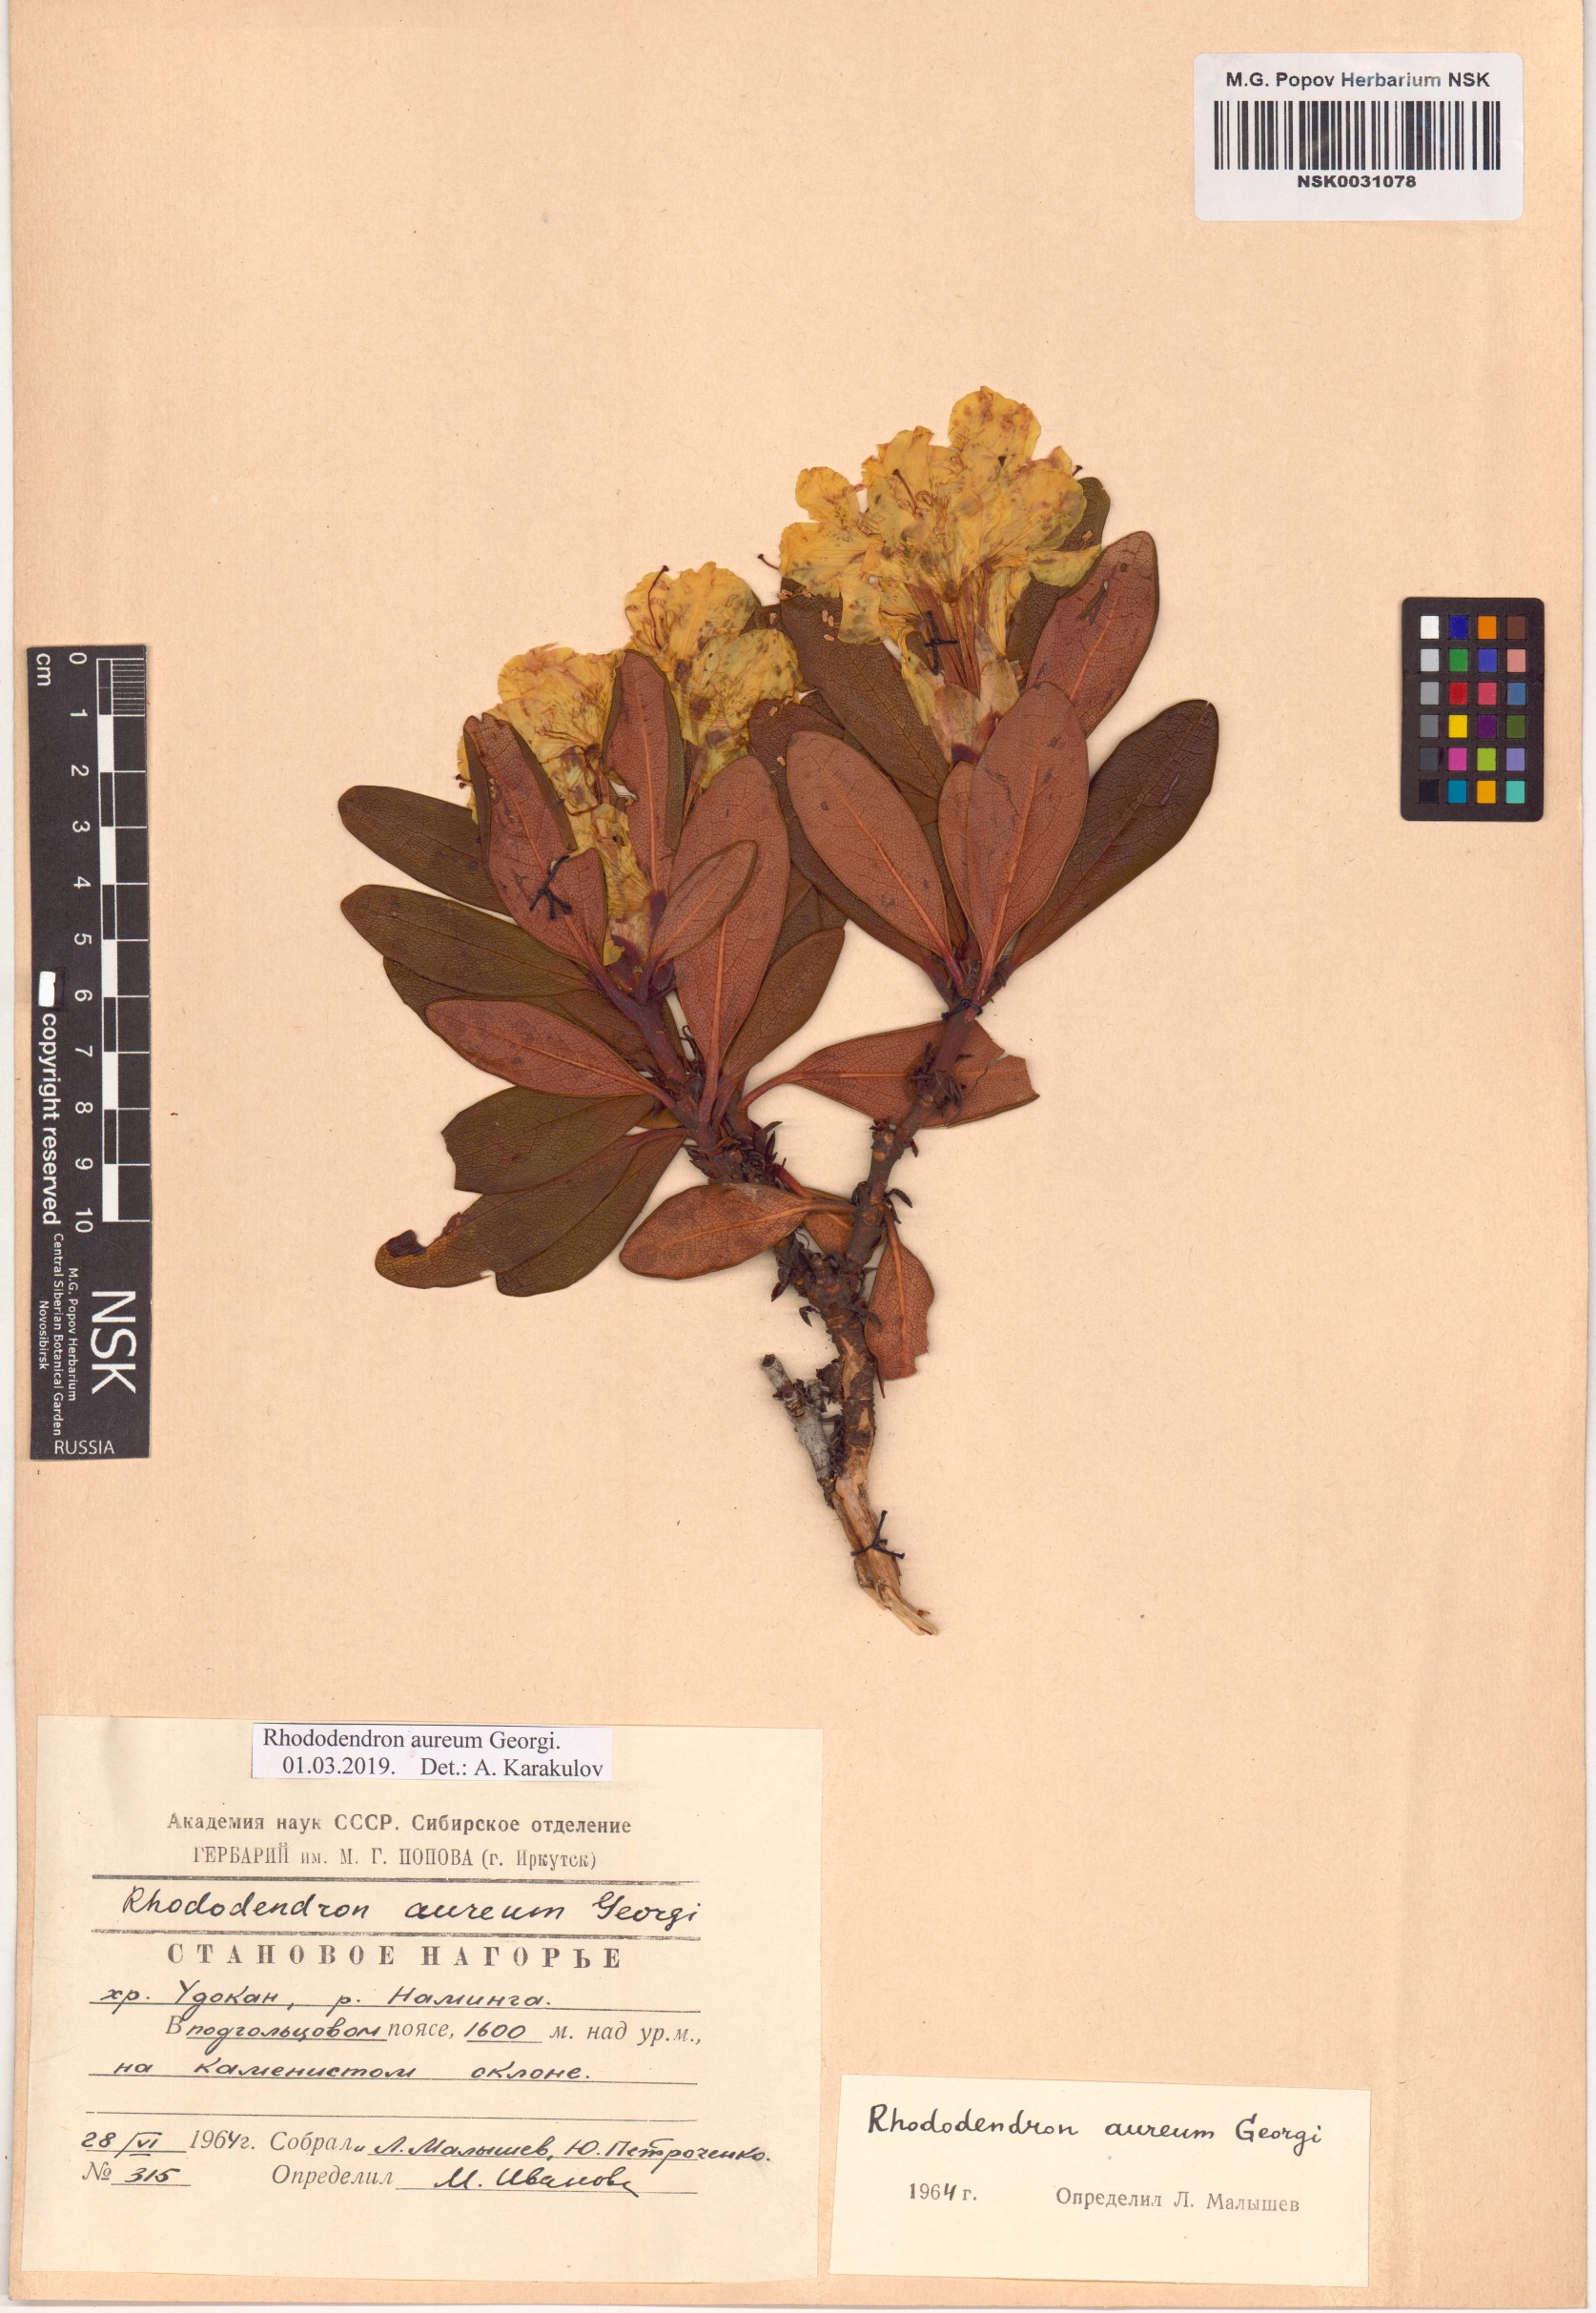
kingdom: Plantae
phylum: Tracheophyta
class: Magnoliopsida
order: Ericales
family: Ericaceae
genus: Rhododendron
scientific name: Rhododendron aureum
